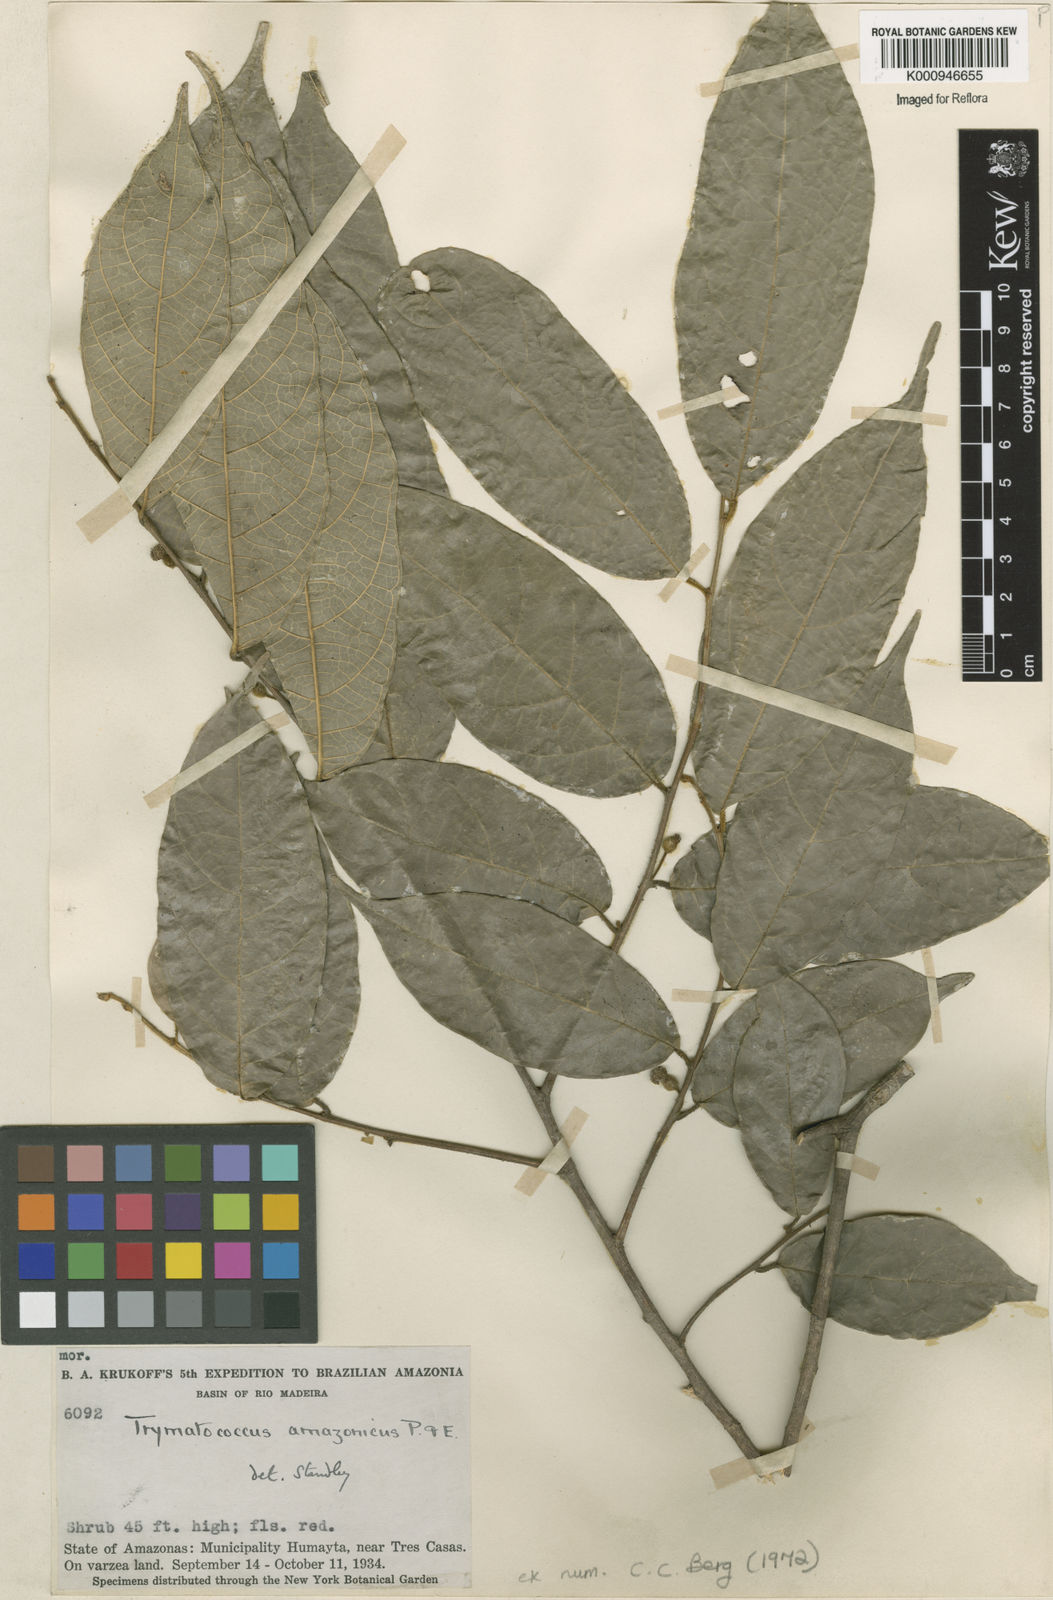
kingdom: Plantae
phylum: Tracheophyta
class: Magnoliopsida
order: Rosales
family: Moraceae
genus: Brosimum
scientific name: Brosimum amazonicum
